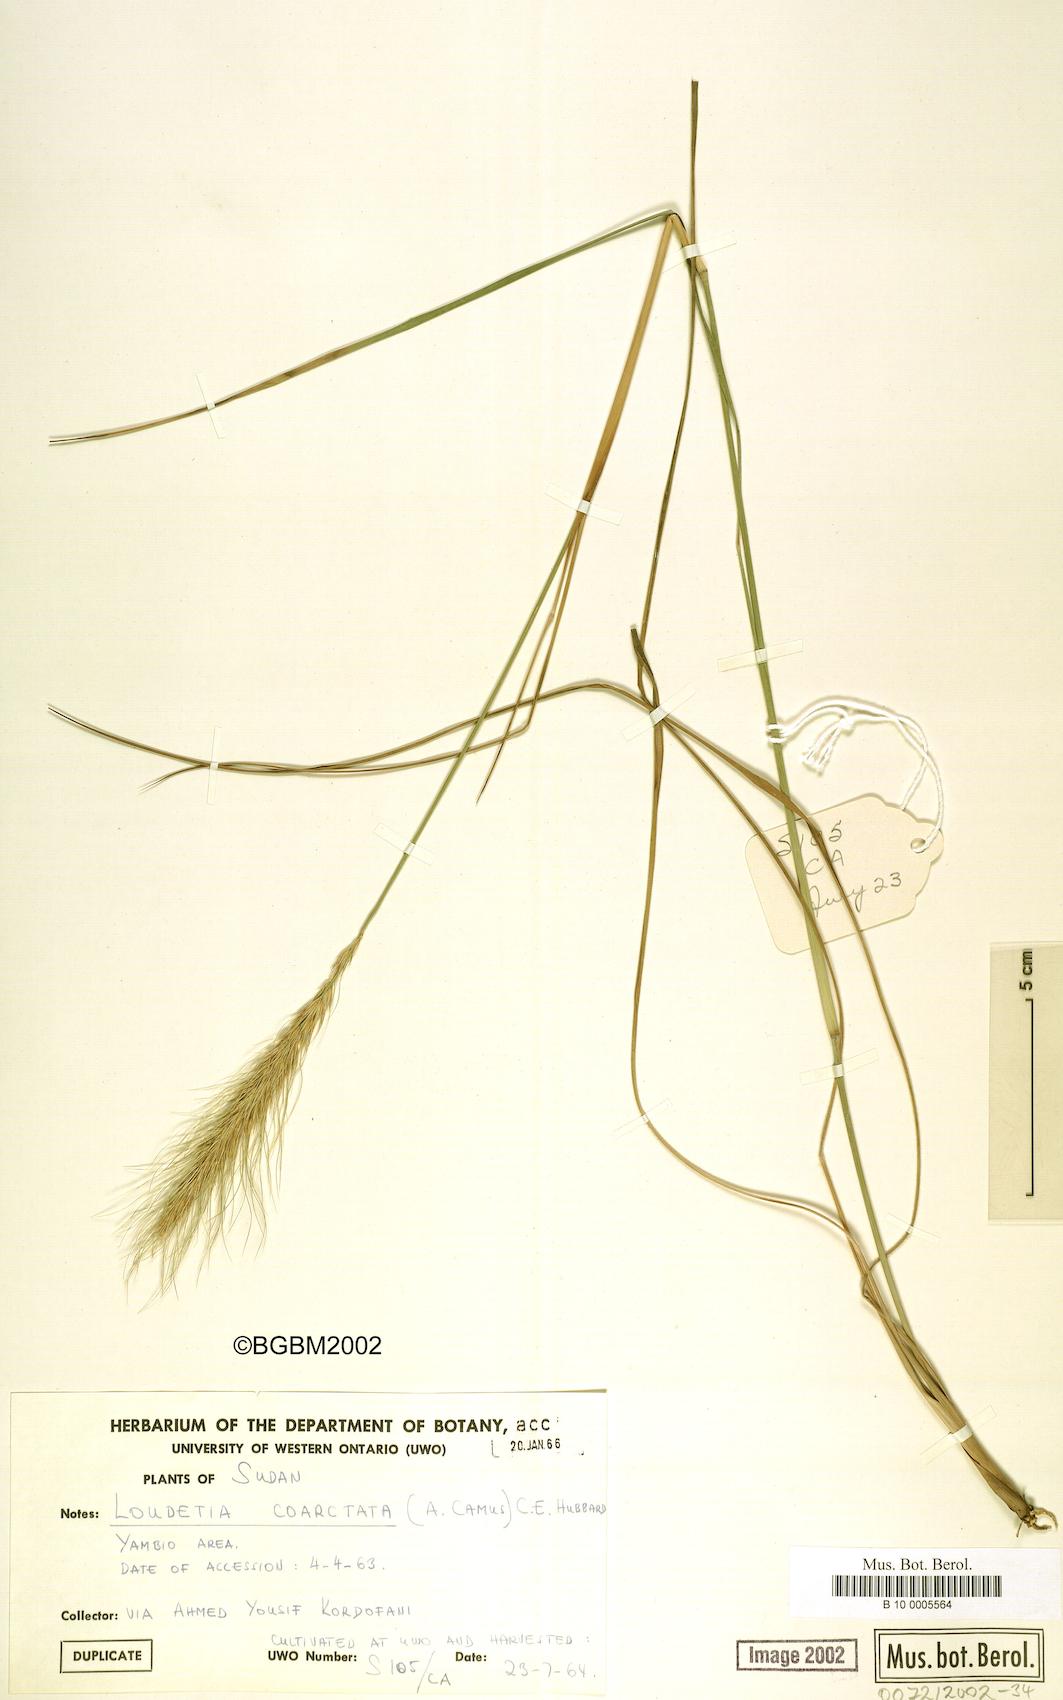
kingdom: Plantae
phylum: Tracheophyta
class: Liliopsida
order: Poales
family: Poaceae
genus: Loudetia
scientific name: Loudetia coarctata
